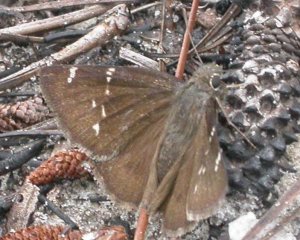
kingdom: Animalia
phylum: Arthropoda
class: Insecta
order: Lepidoptera
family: Hesperiidae
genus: Thorybes
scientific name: Thorybes mexicana
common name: Confused Cloudywing
